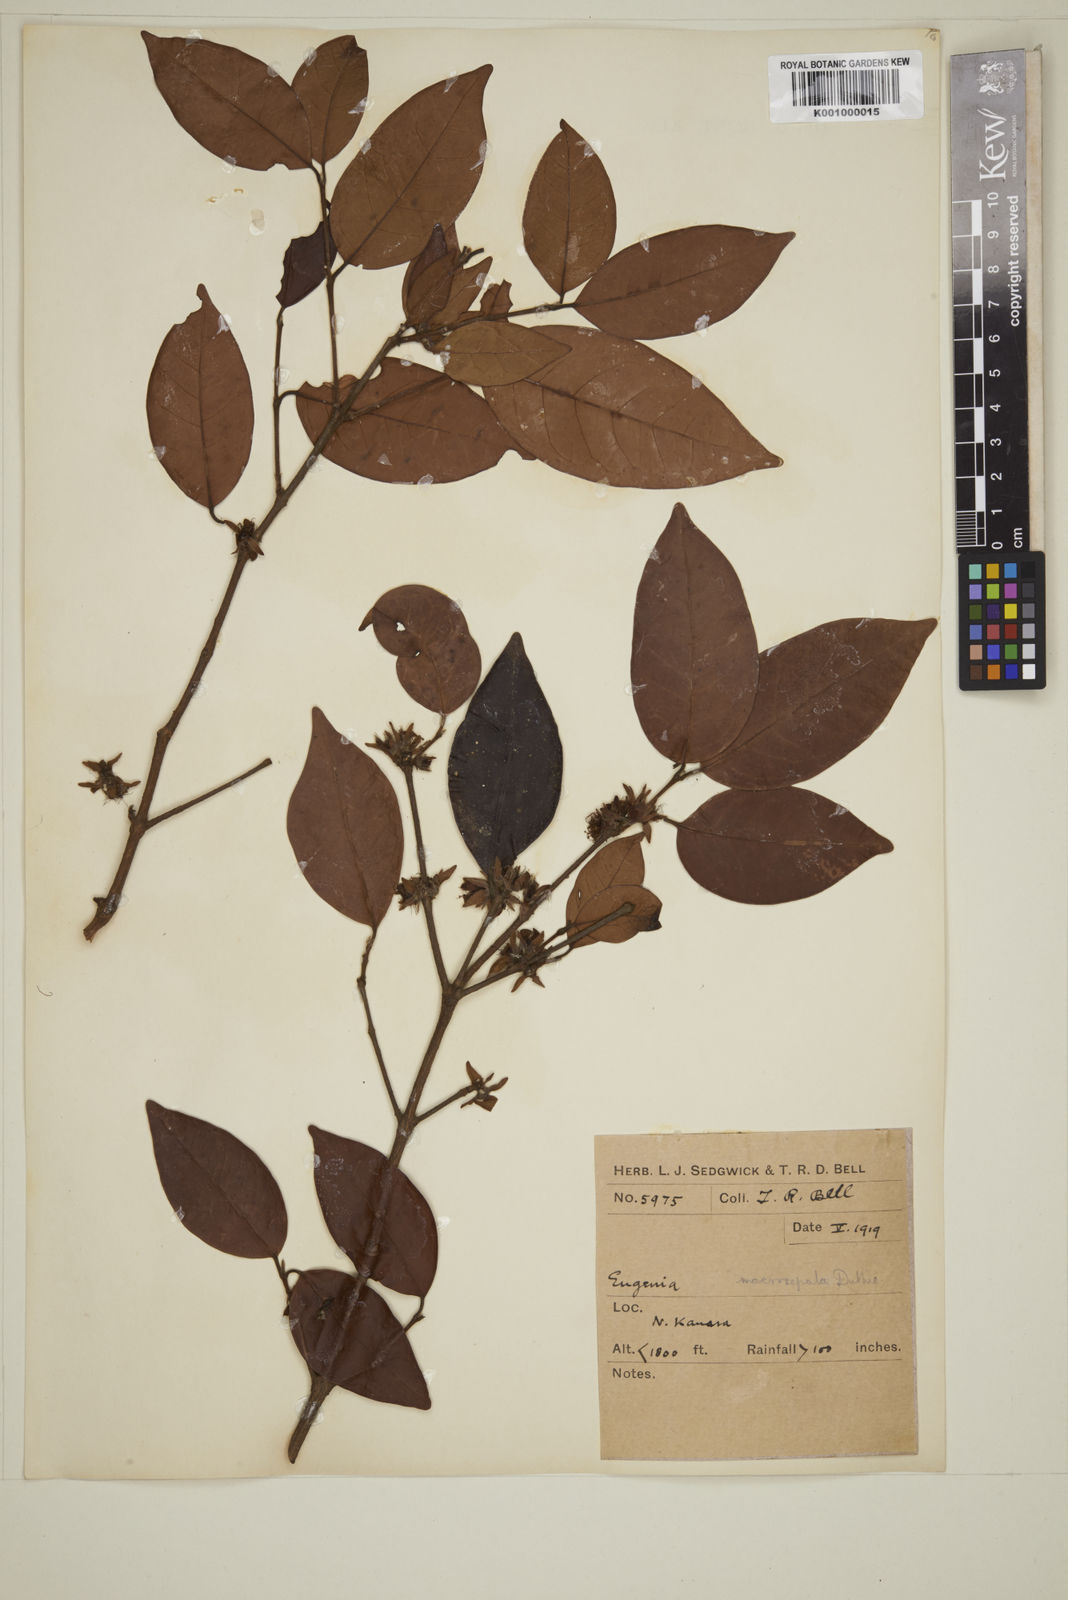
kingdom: Plantae
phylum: Tracheophyta
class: Magnoliopsida
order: Myrtales
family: Myrtaceae
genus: Eugenia
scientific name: Eugenia macrosepala
